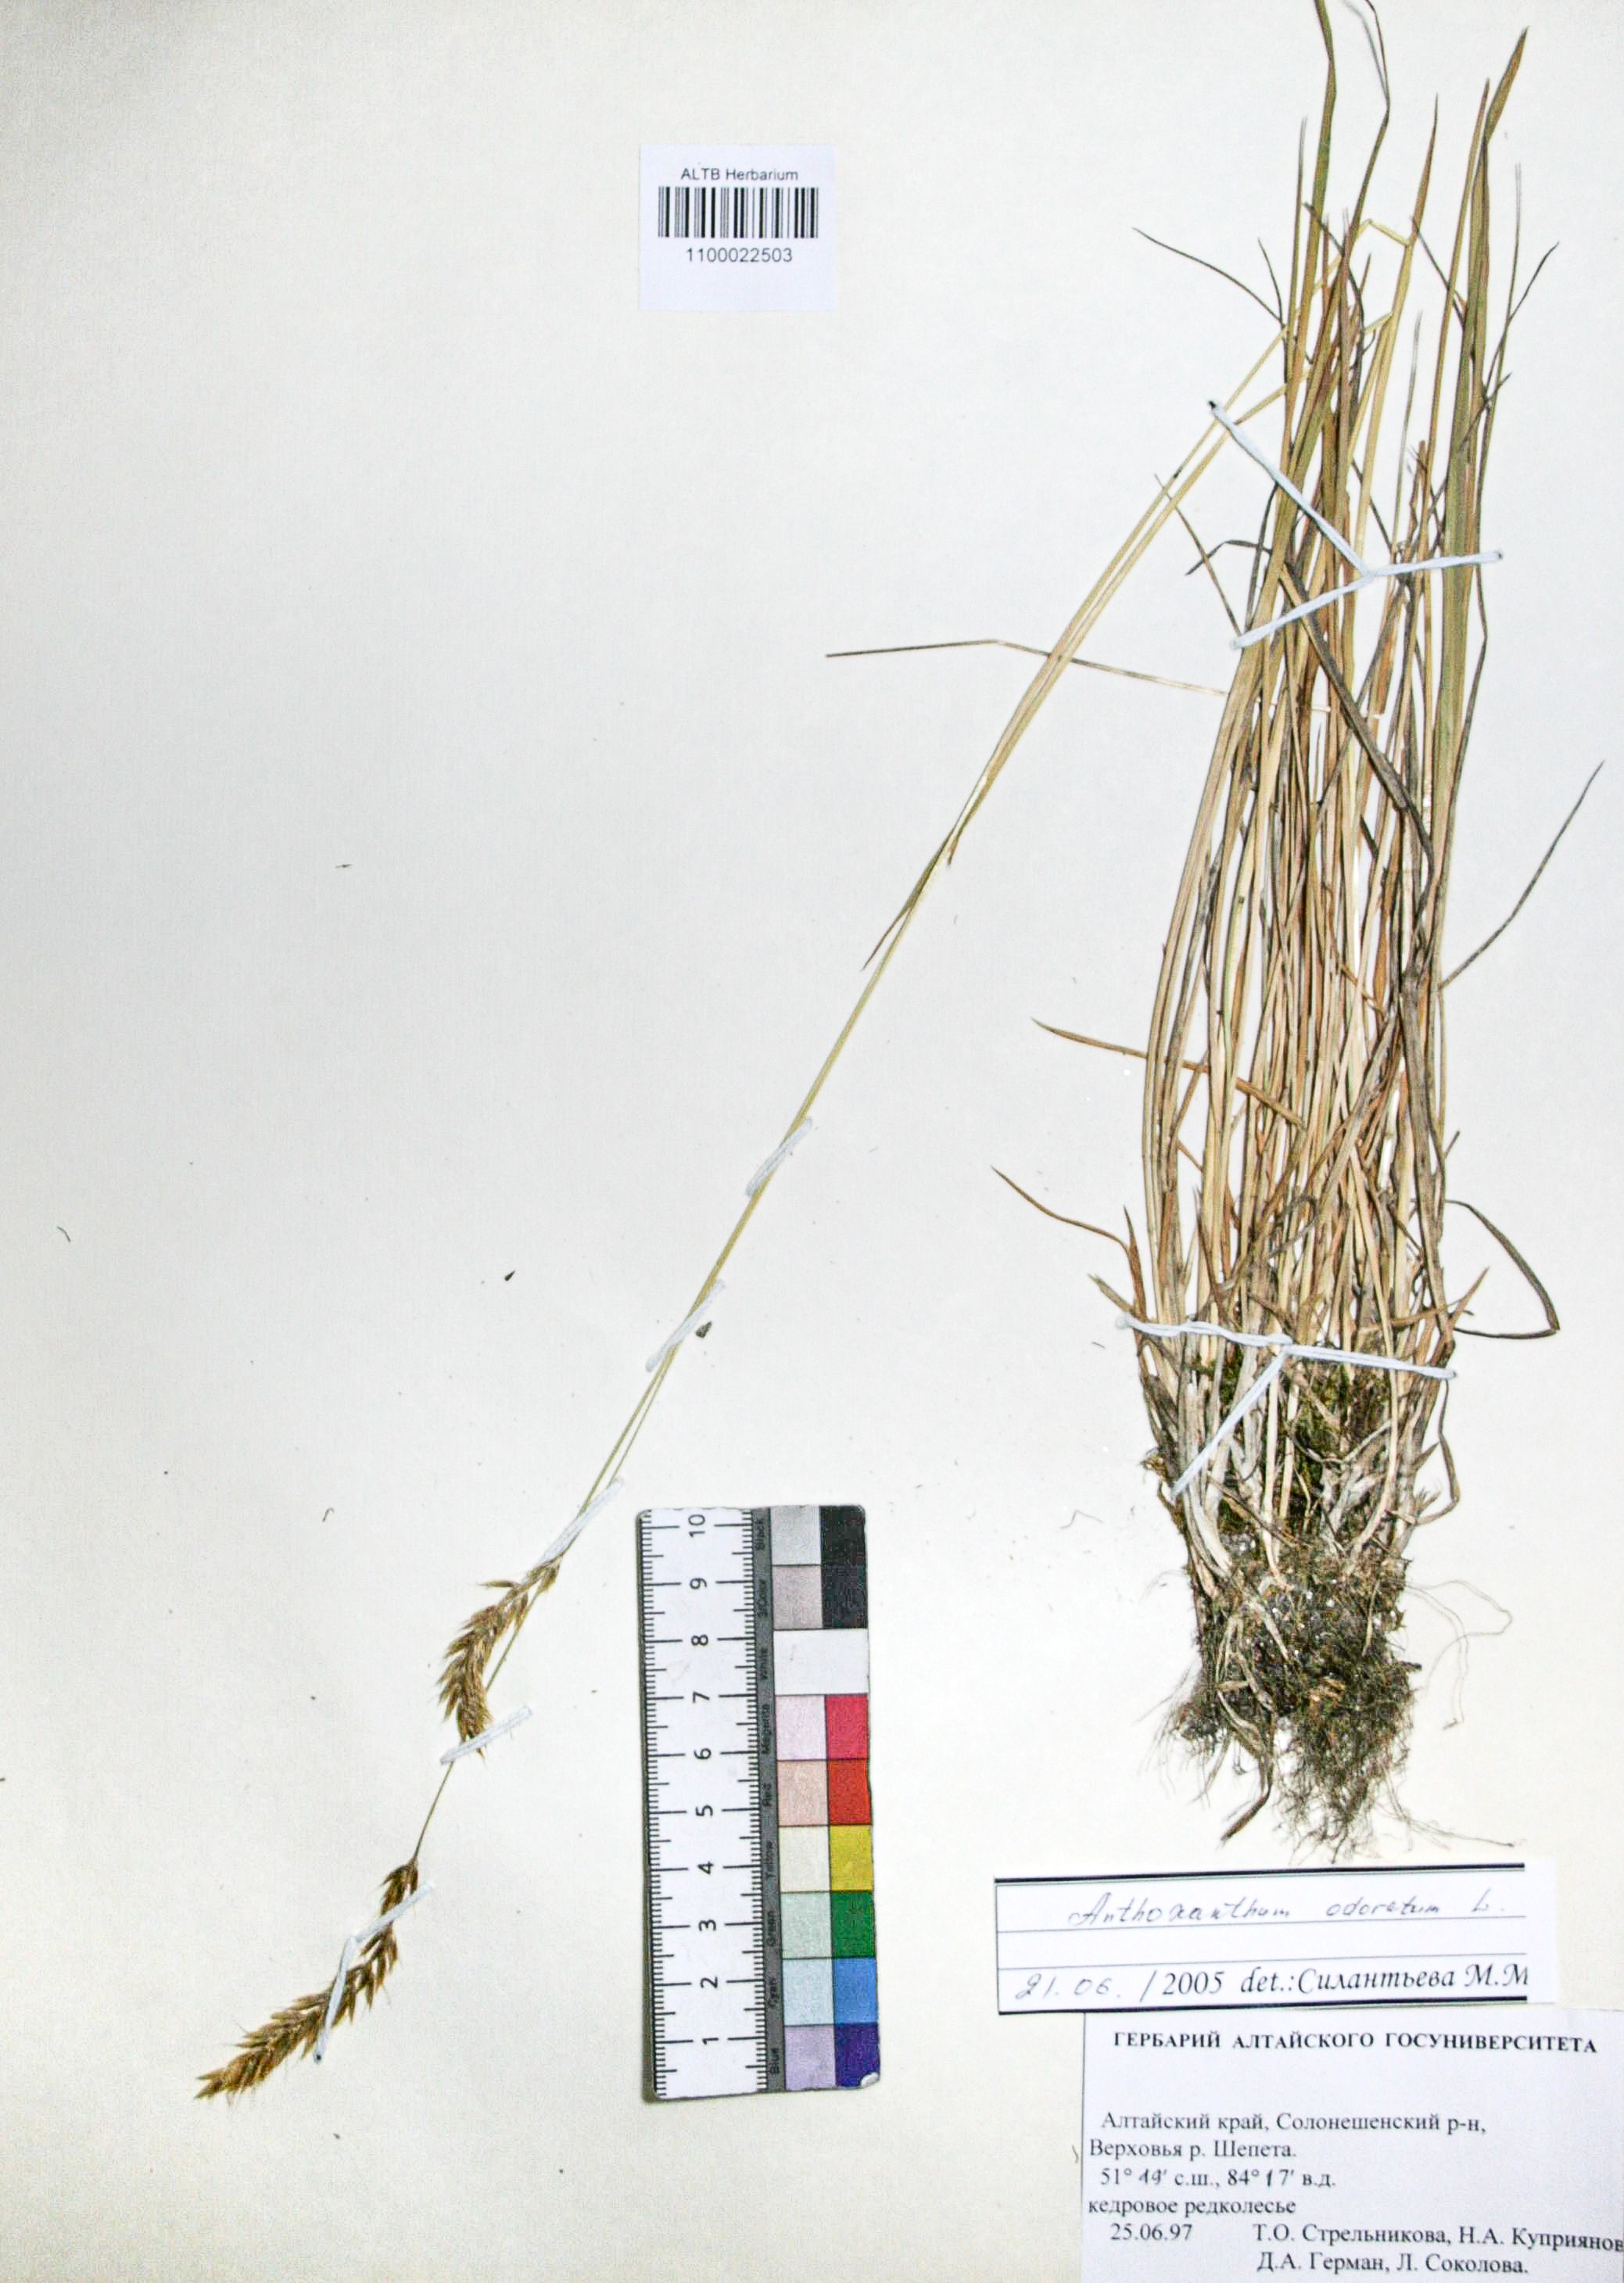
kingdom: Plantae
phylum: Tracheophyta
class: Liliopsida
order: Poales
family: Poaceae
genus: Anthoxanthum
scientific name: Anthoxanthum odoratum
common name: Sweet vernalgrass
